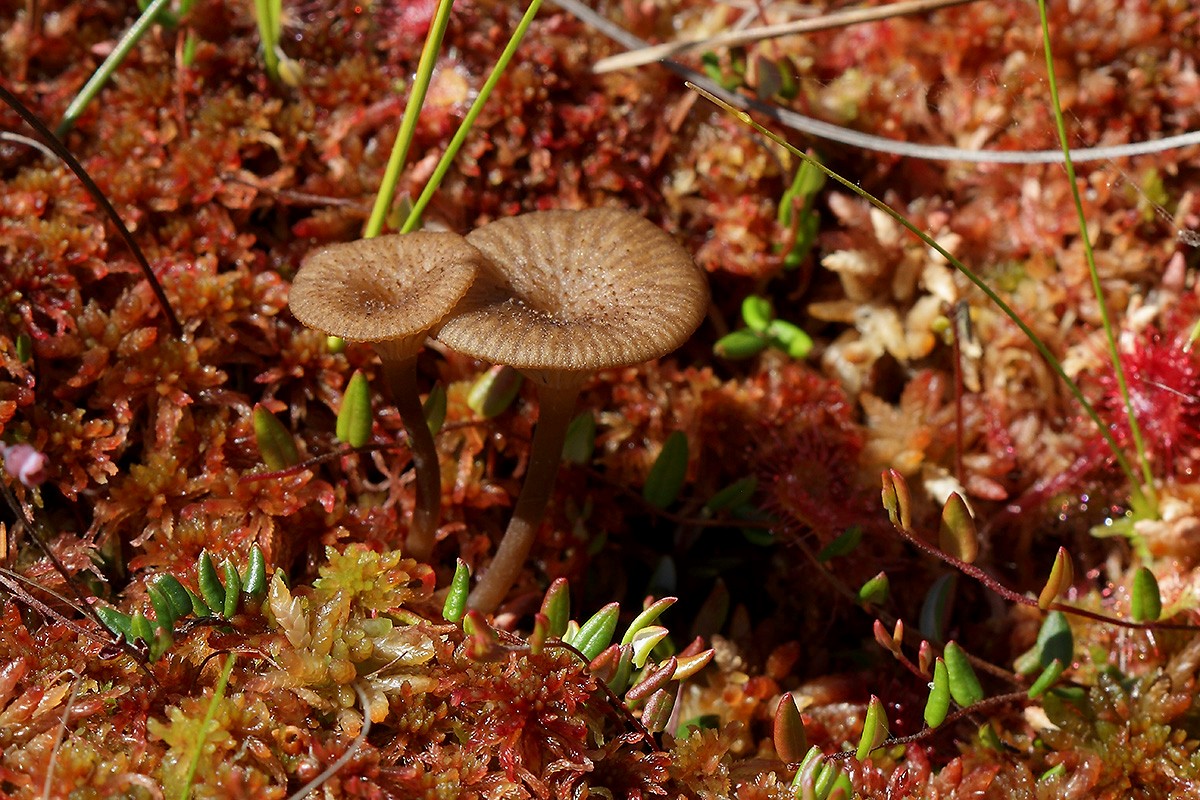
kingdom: Fungi
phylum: Basidiomycota
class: Agaricomycetes
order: Agaricales
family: Hygrophoraceae
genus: Arrhenia
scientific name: Arrhenia gerardiana
